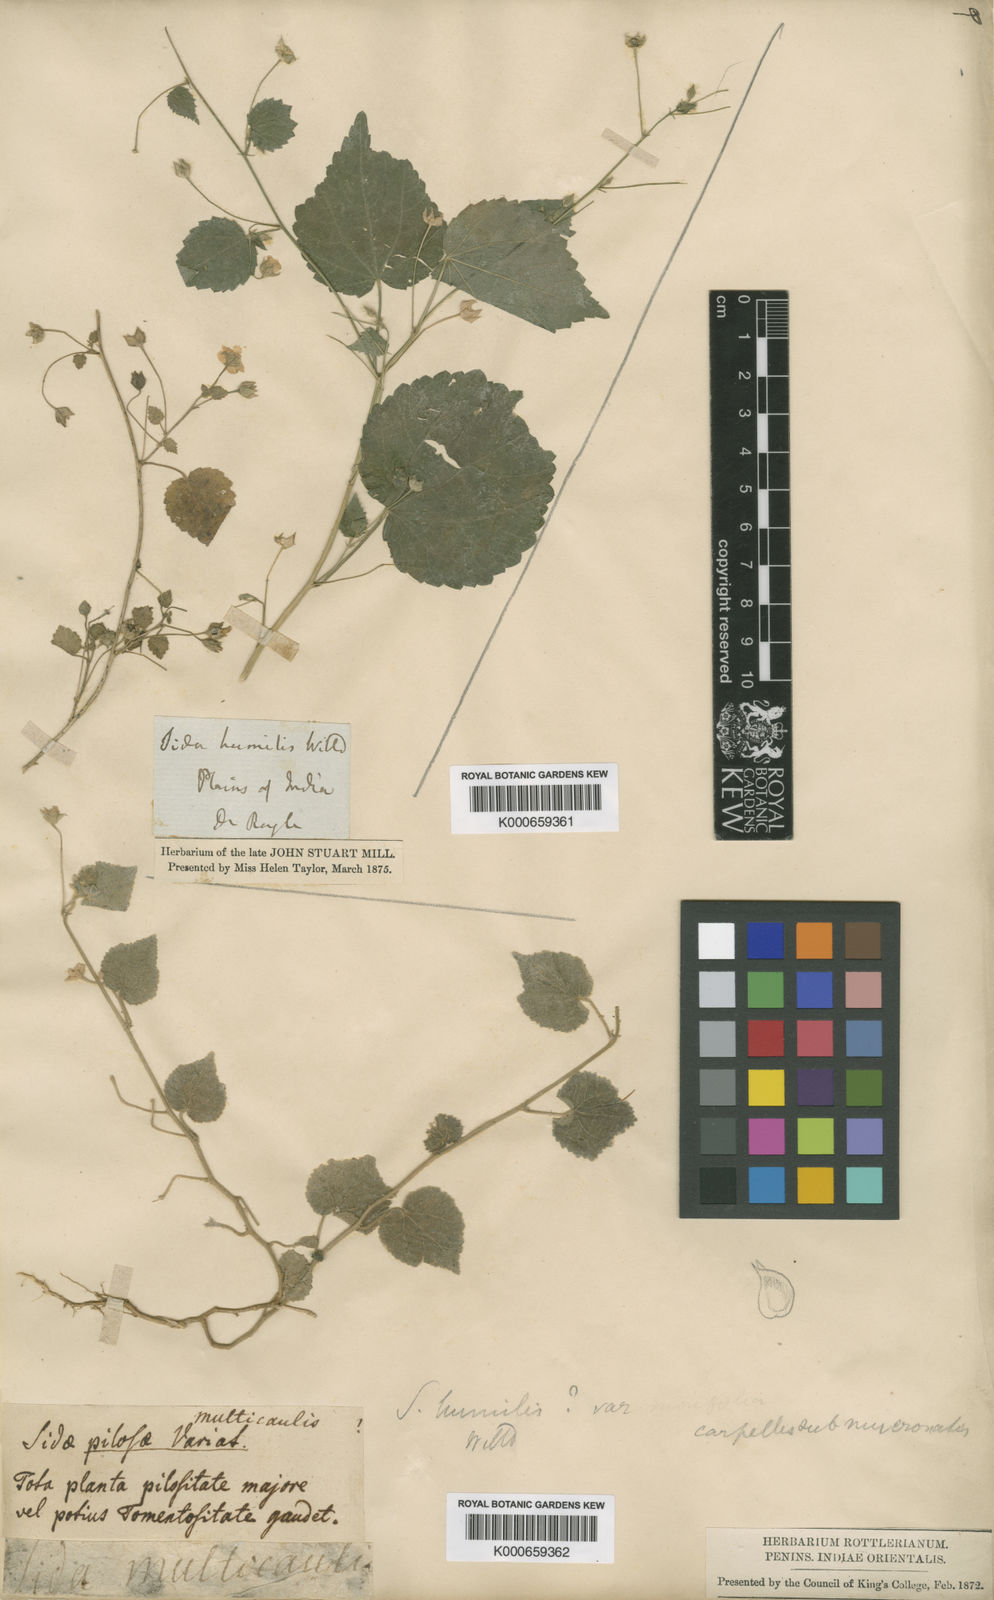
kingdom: Plantae
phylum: Tracheophyta
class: Magnoliopsida
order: Malvales
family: Malvaceae
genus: Sida
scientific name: Sida cordata
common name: Long-stalk sida
